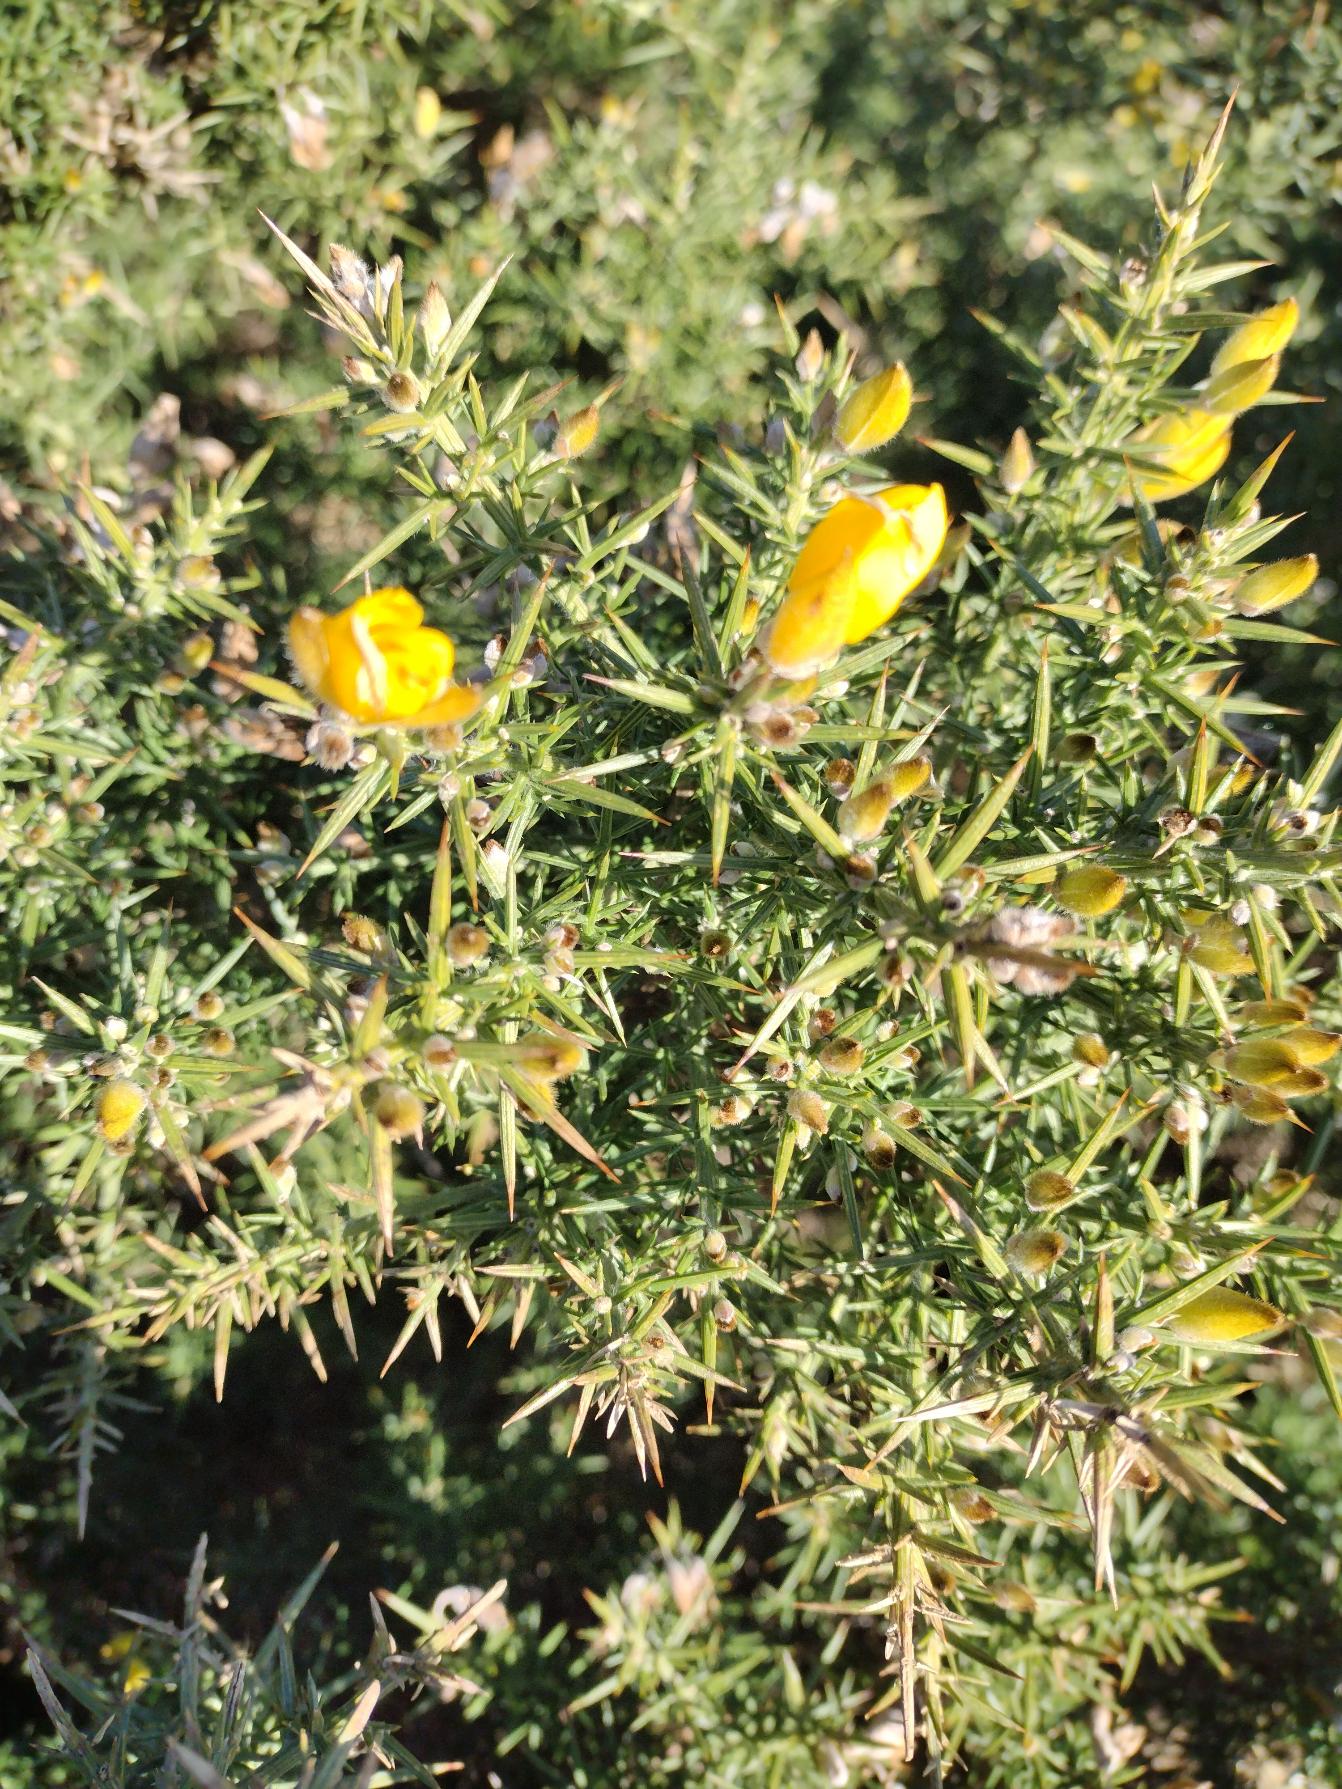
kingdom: Plantae
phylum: Tracheophyta
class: Magnoliopsida
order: Fabales
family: Fabaceae
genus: Ulex
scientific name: Ulex europaeus
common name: Tornblad
